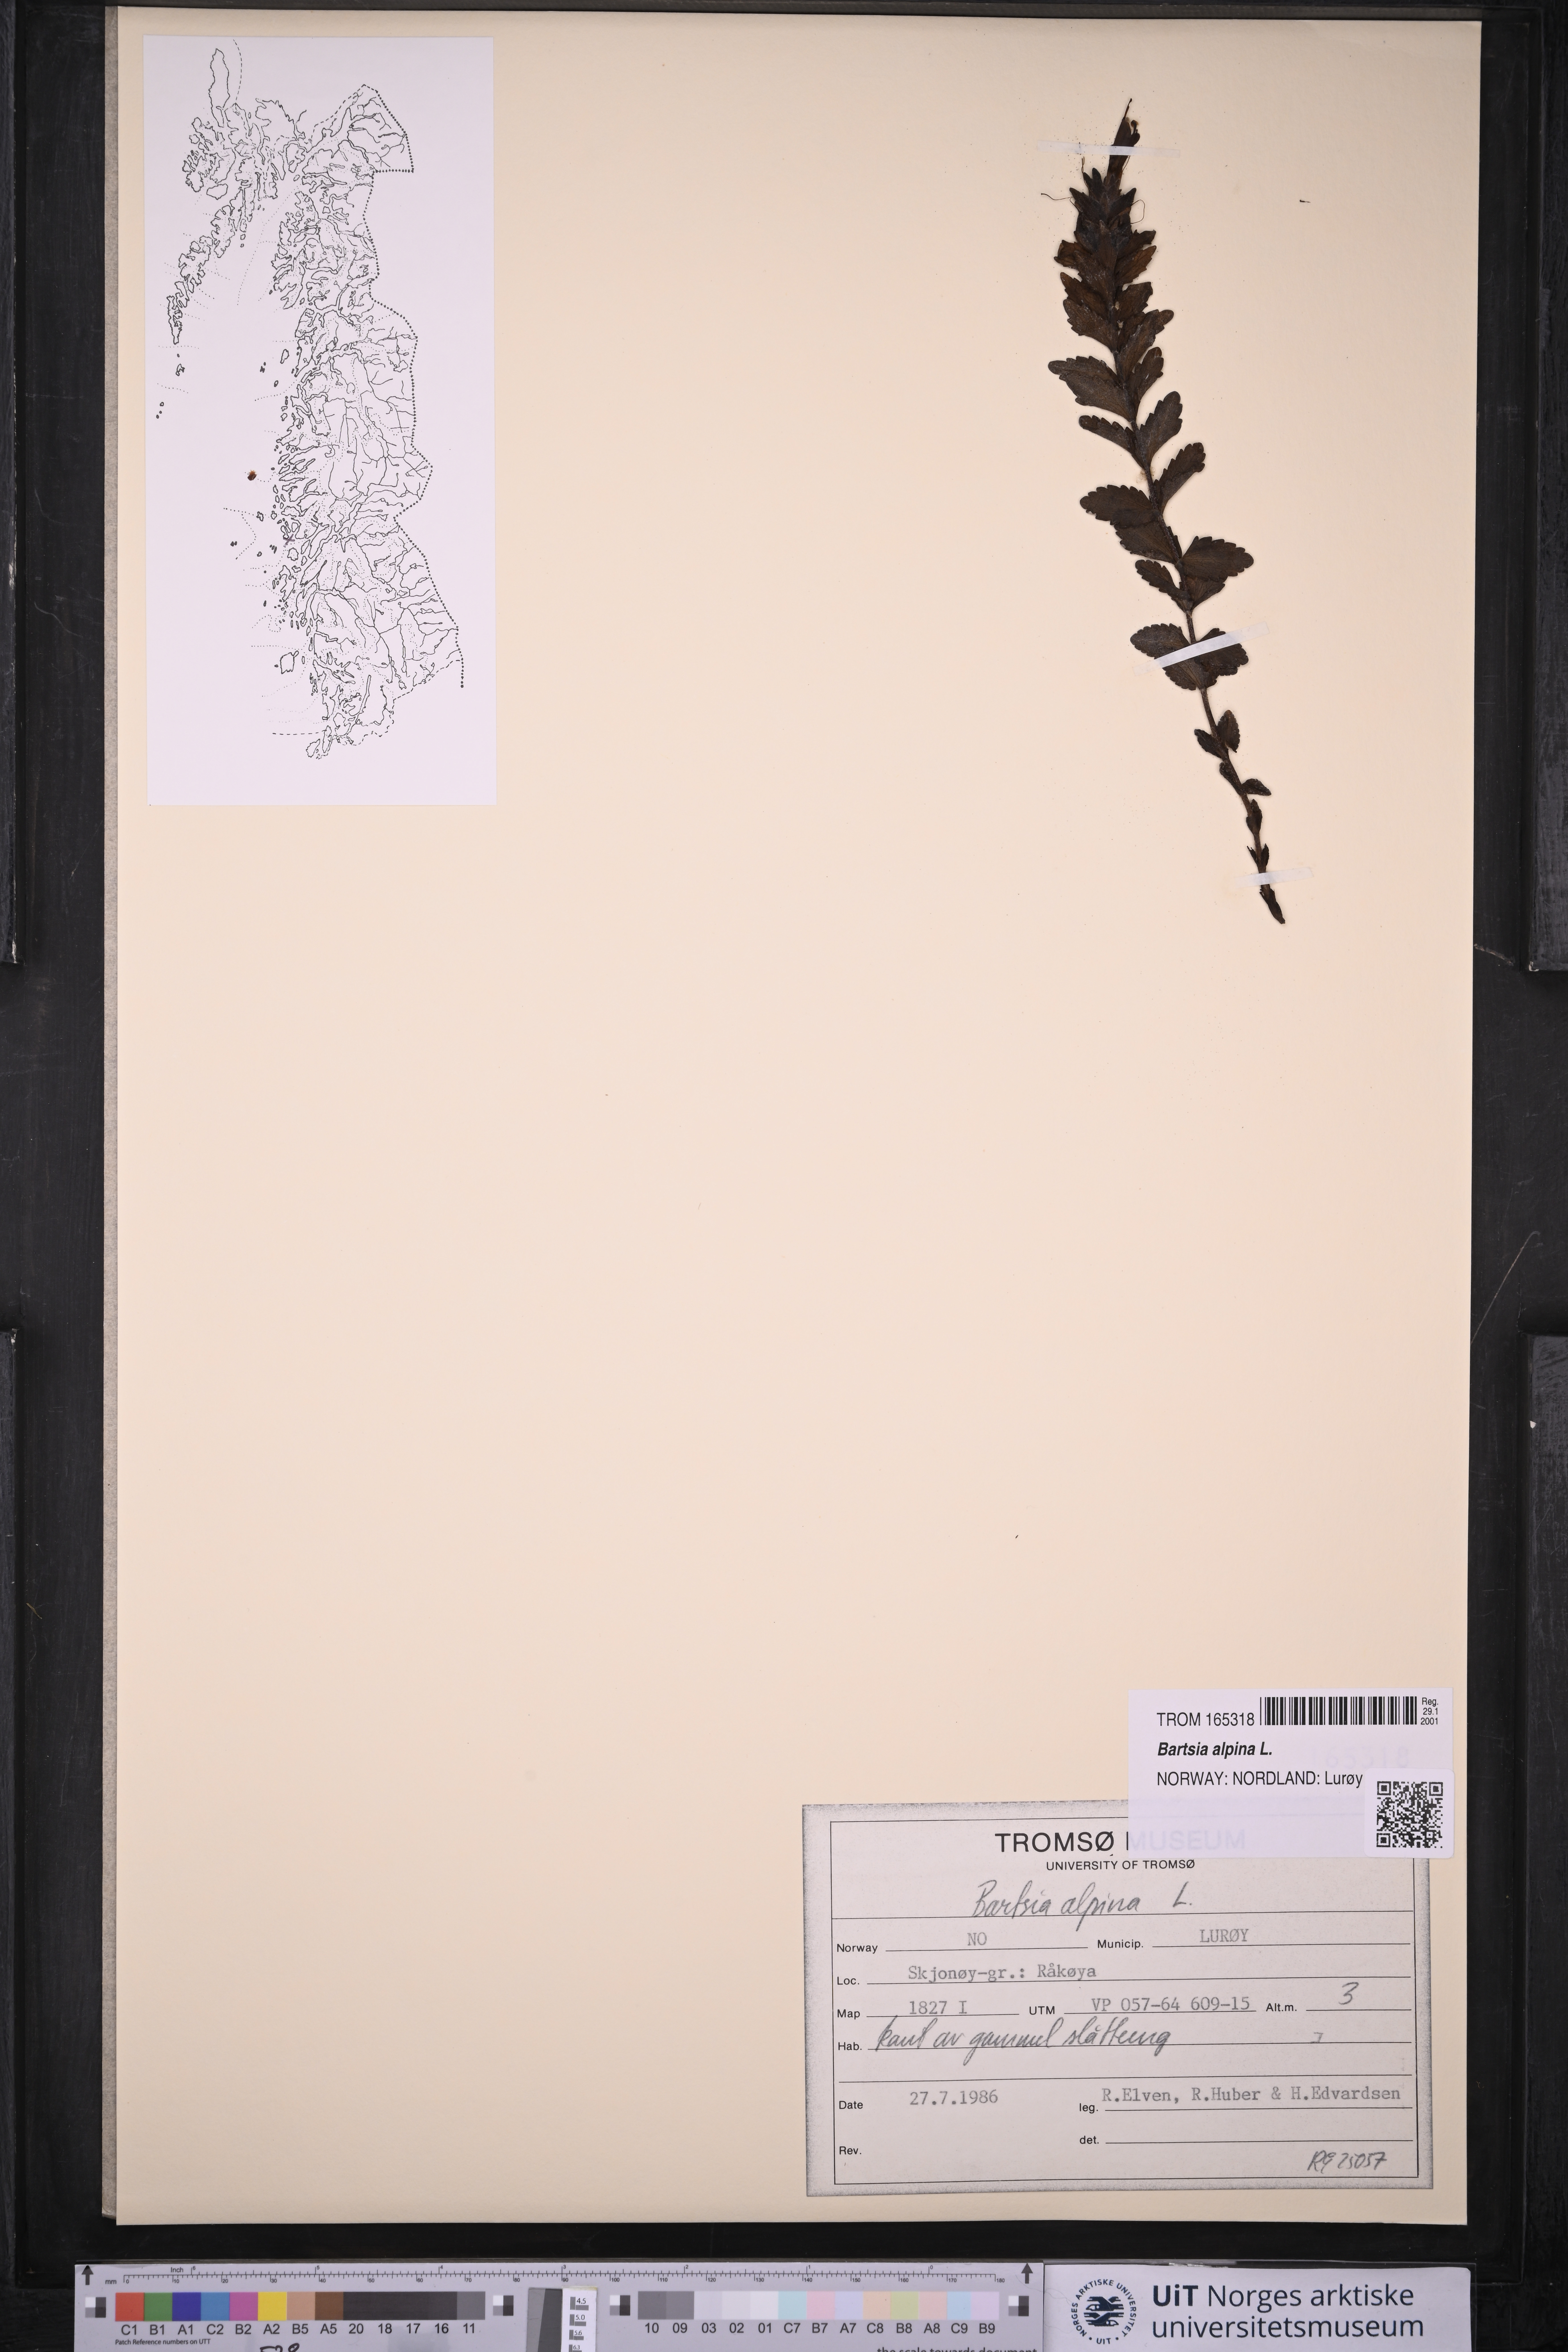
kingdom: Plantae
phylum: Tracheophyta
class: Magnoliopsida
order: Lamiales
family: Orobanchaceae
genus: Bartsia
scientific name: Bartsia alpina
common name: Alpine bartsia
